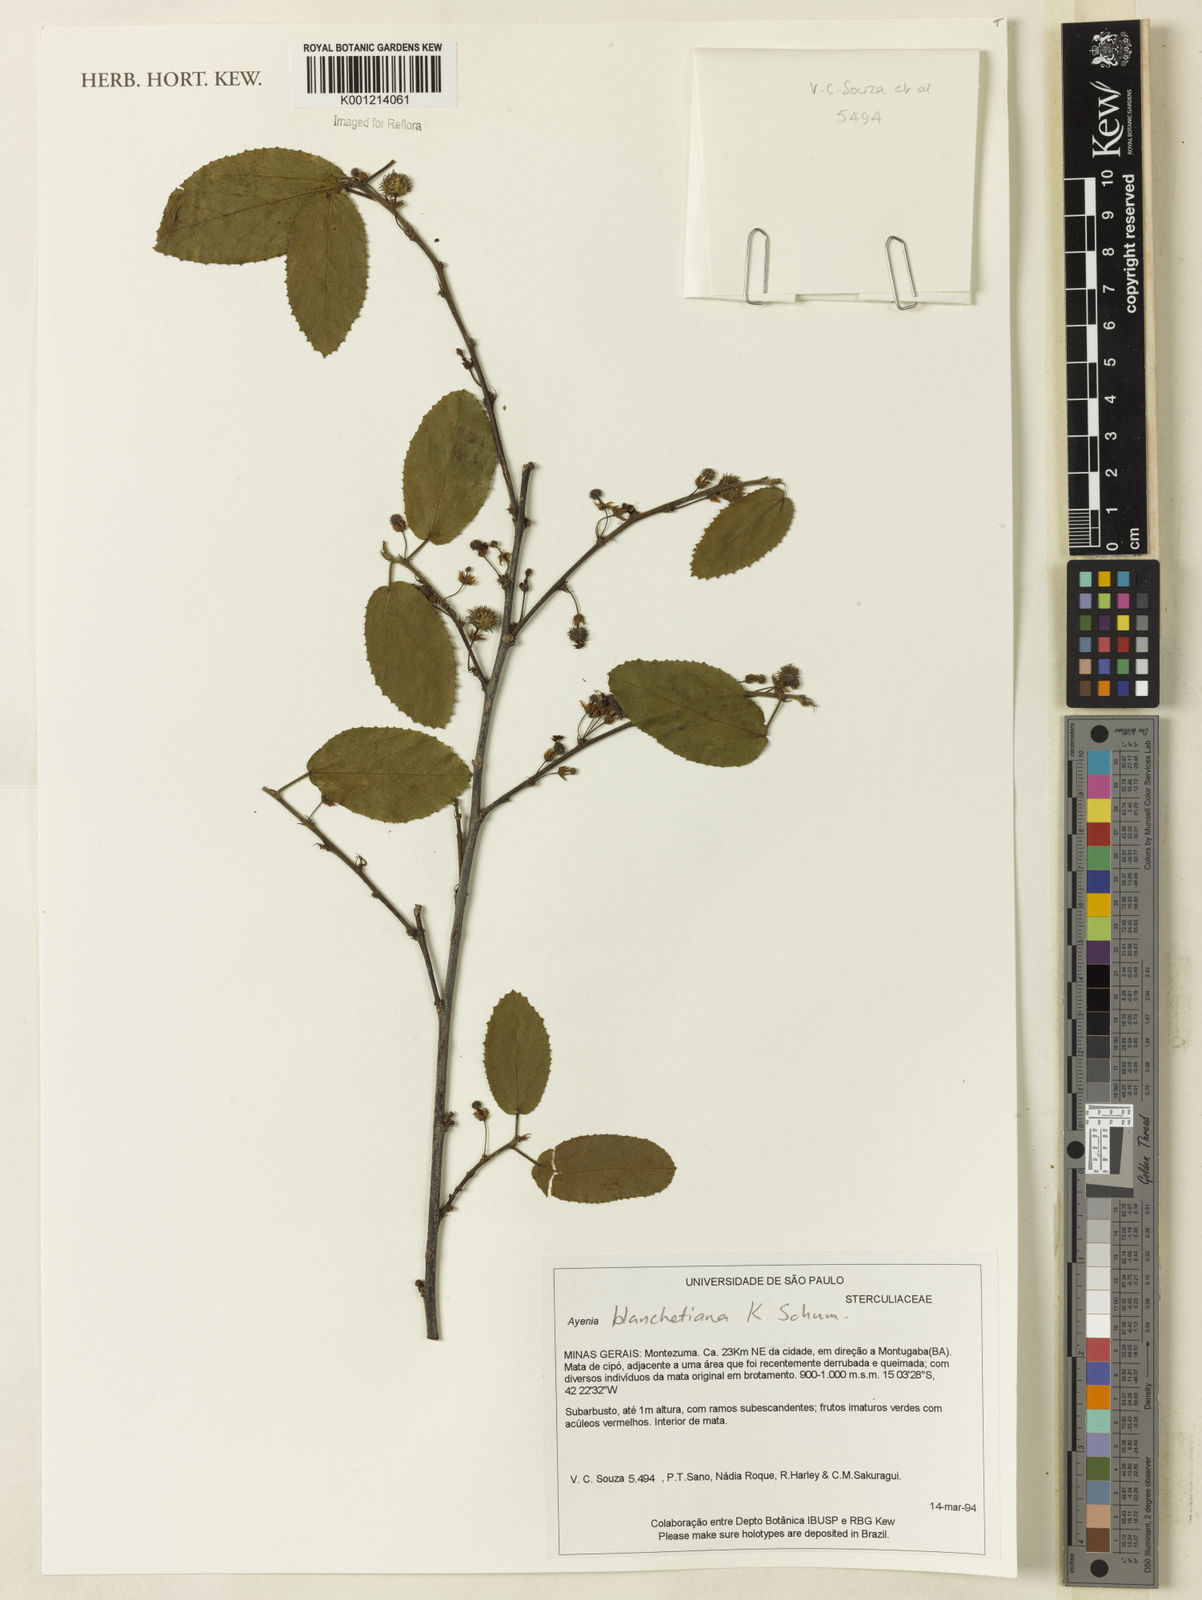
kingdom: Plantae
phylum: Tracheophyta
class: Magnoliopsida
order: Malvales
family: Malvaceae
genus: Ayenia
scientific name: Ayenia blanchetiana
